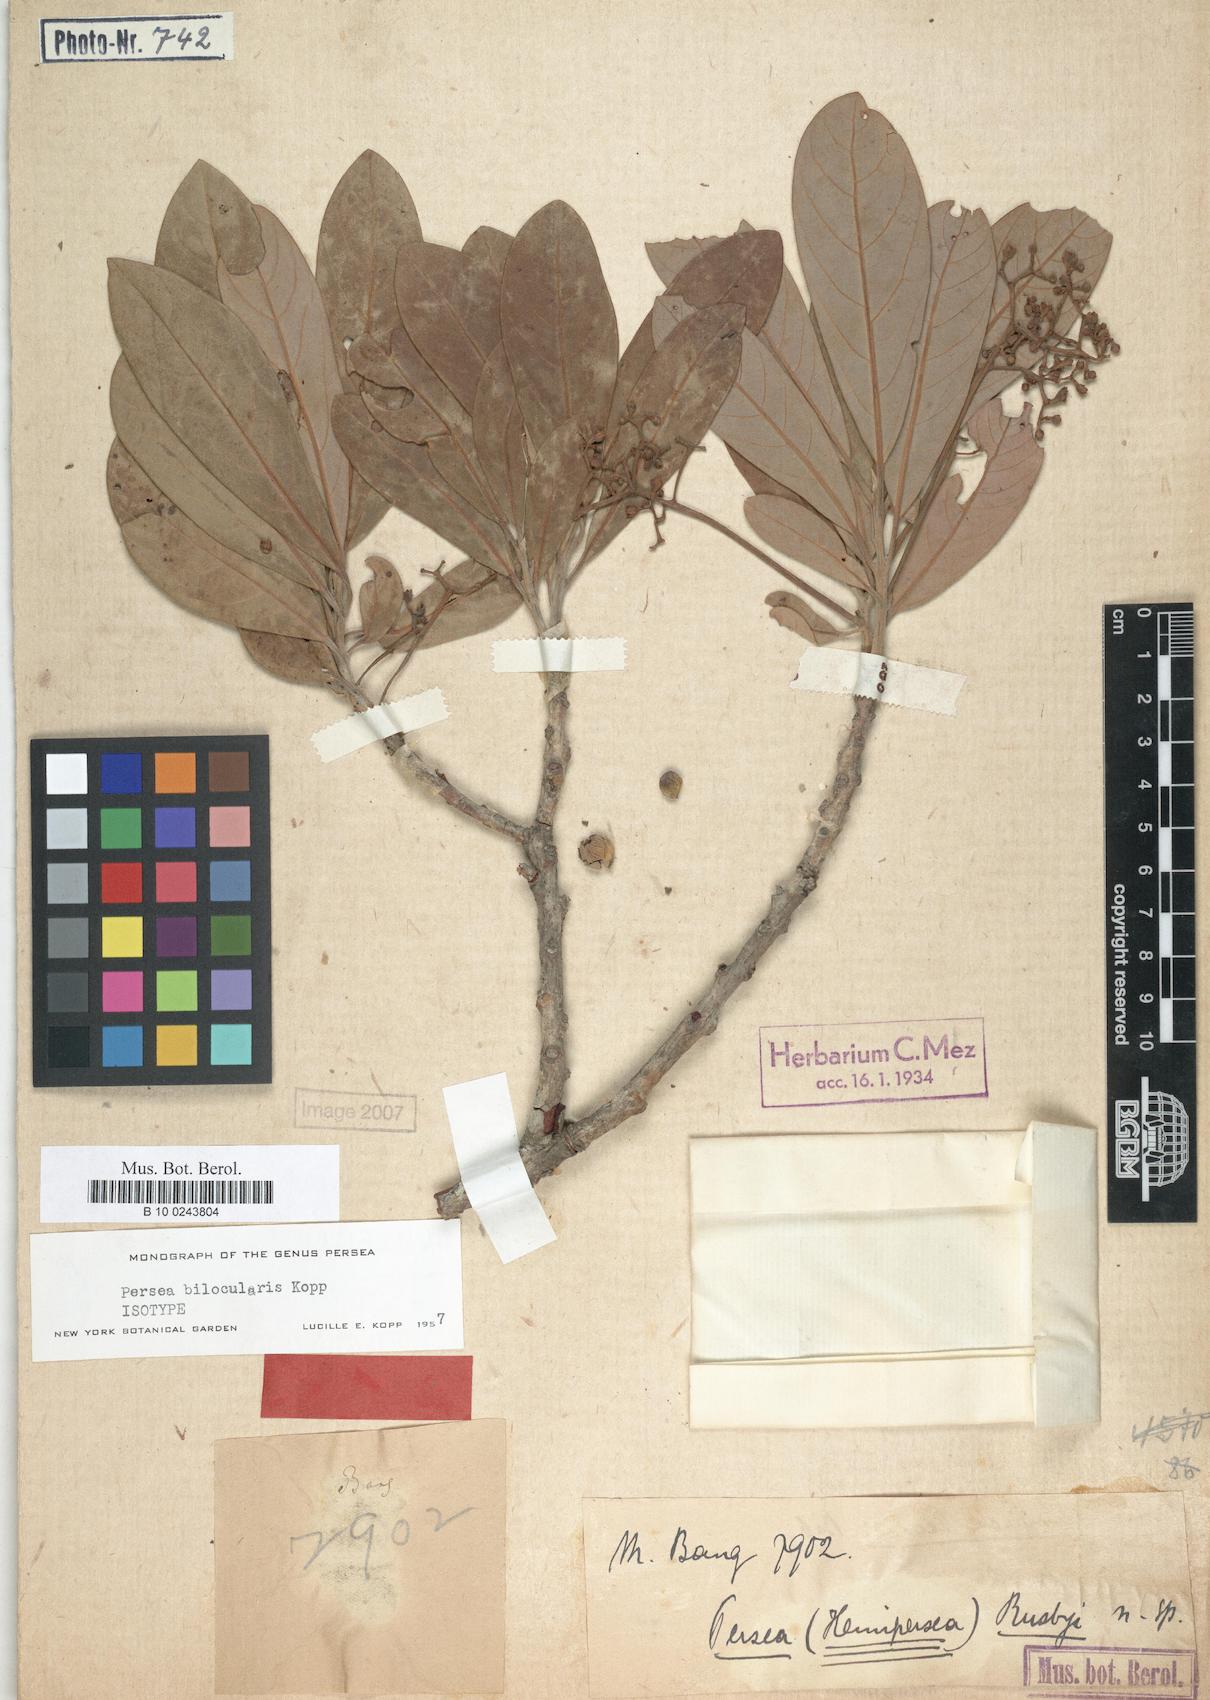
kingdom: Plantae
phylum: Tracheophyta
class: Magnoliopsida
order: Laurales
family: Lauraceae
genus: Persea
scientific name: Persea bilocularis
